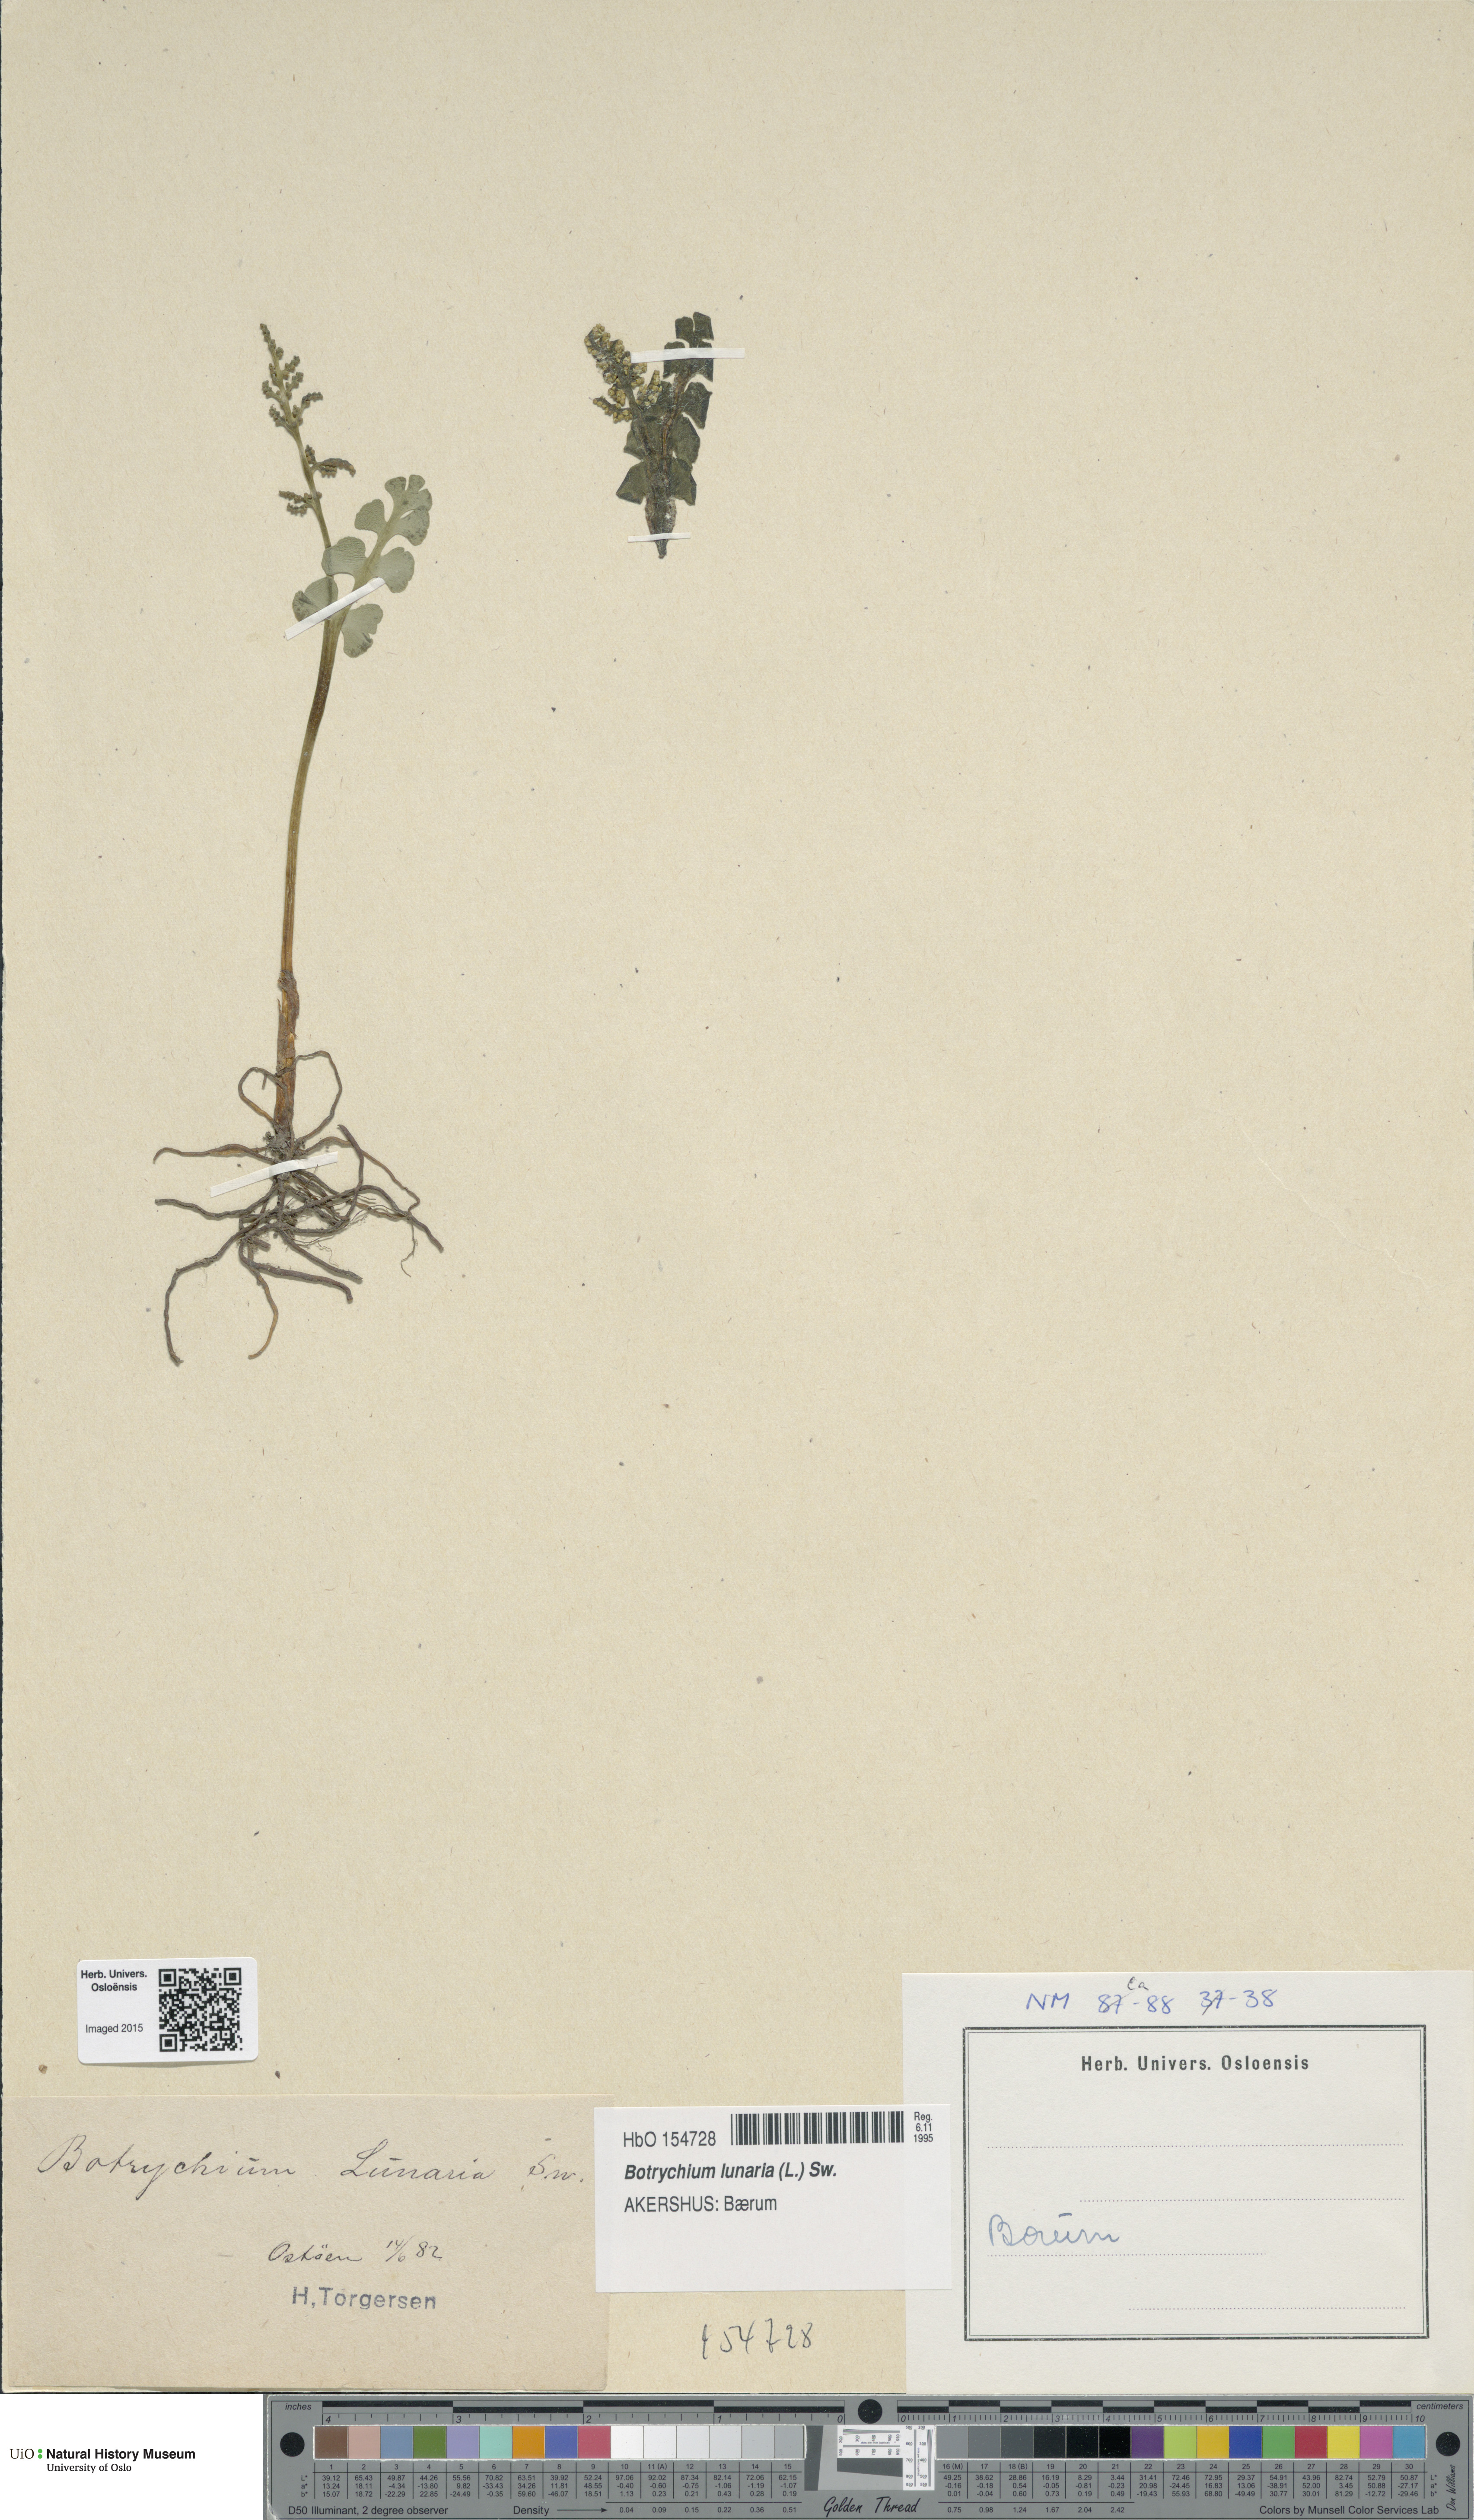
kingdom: Plantae
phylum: Tracheophyta
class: Polypodiopsida
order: Ophioglossales
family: Ophioglossaceae
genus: Botrychium
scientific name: Botrychium lunaria
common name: Moonwort
